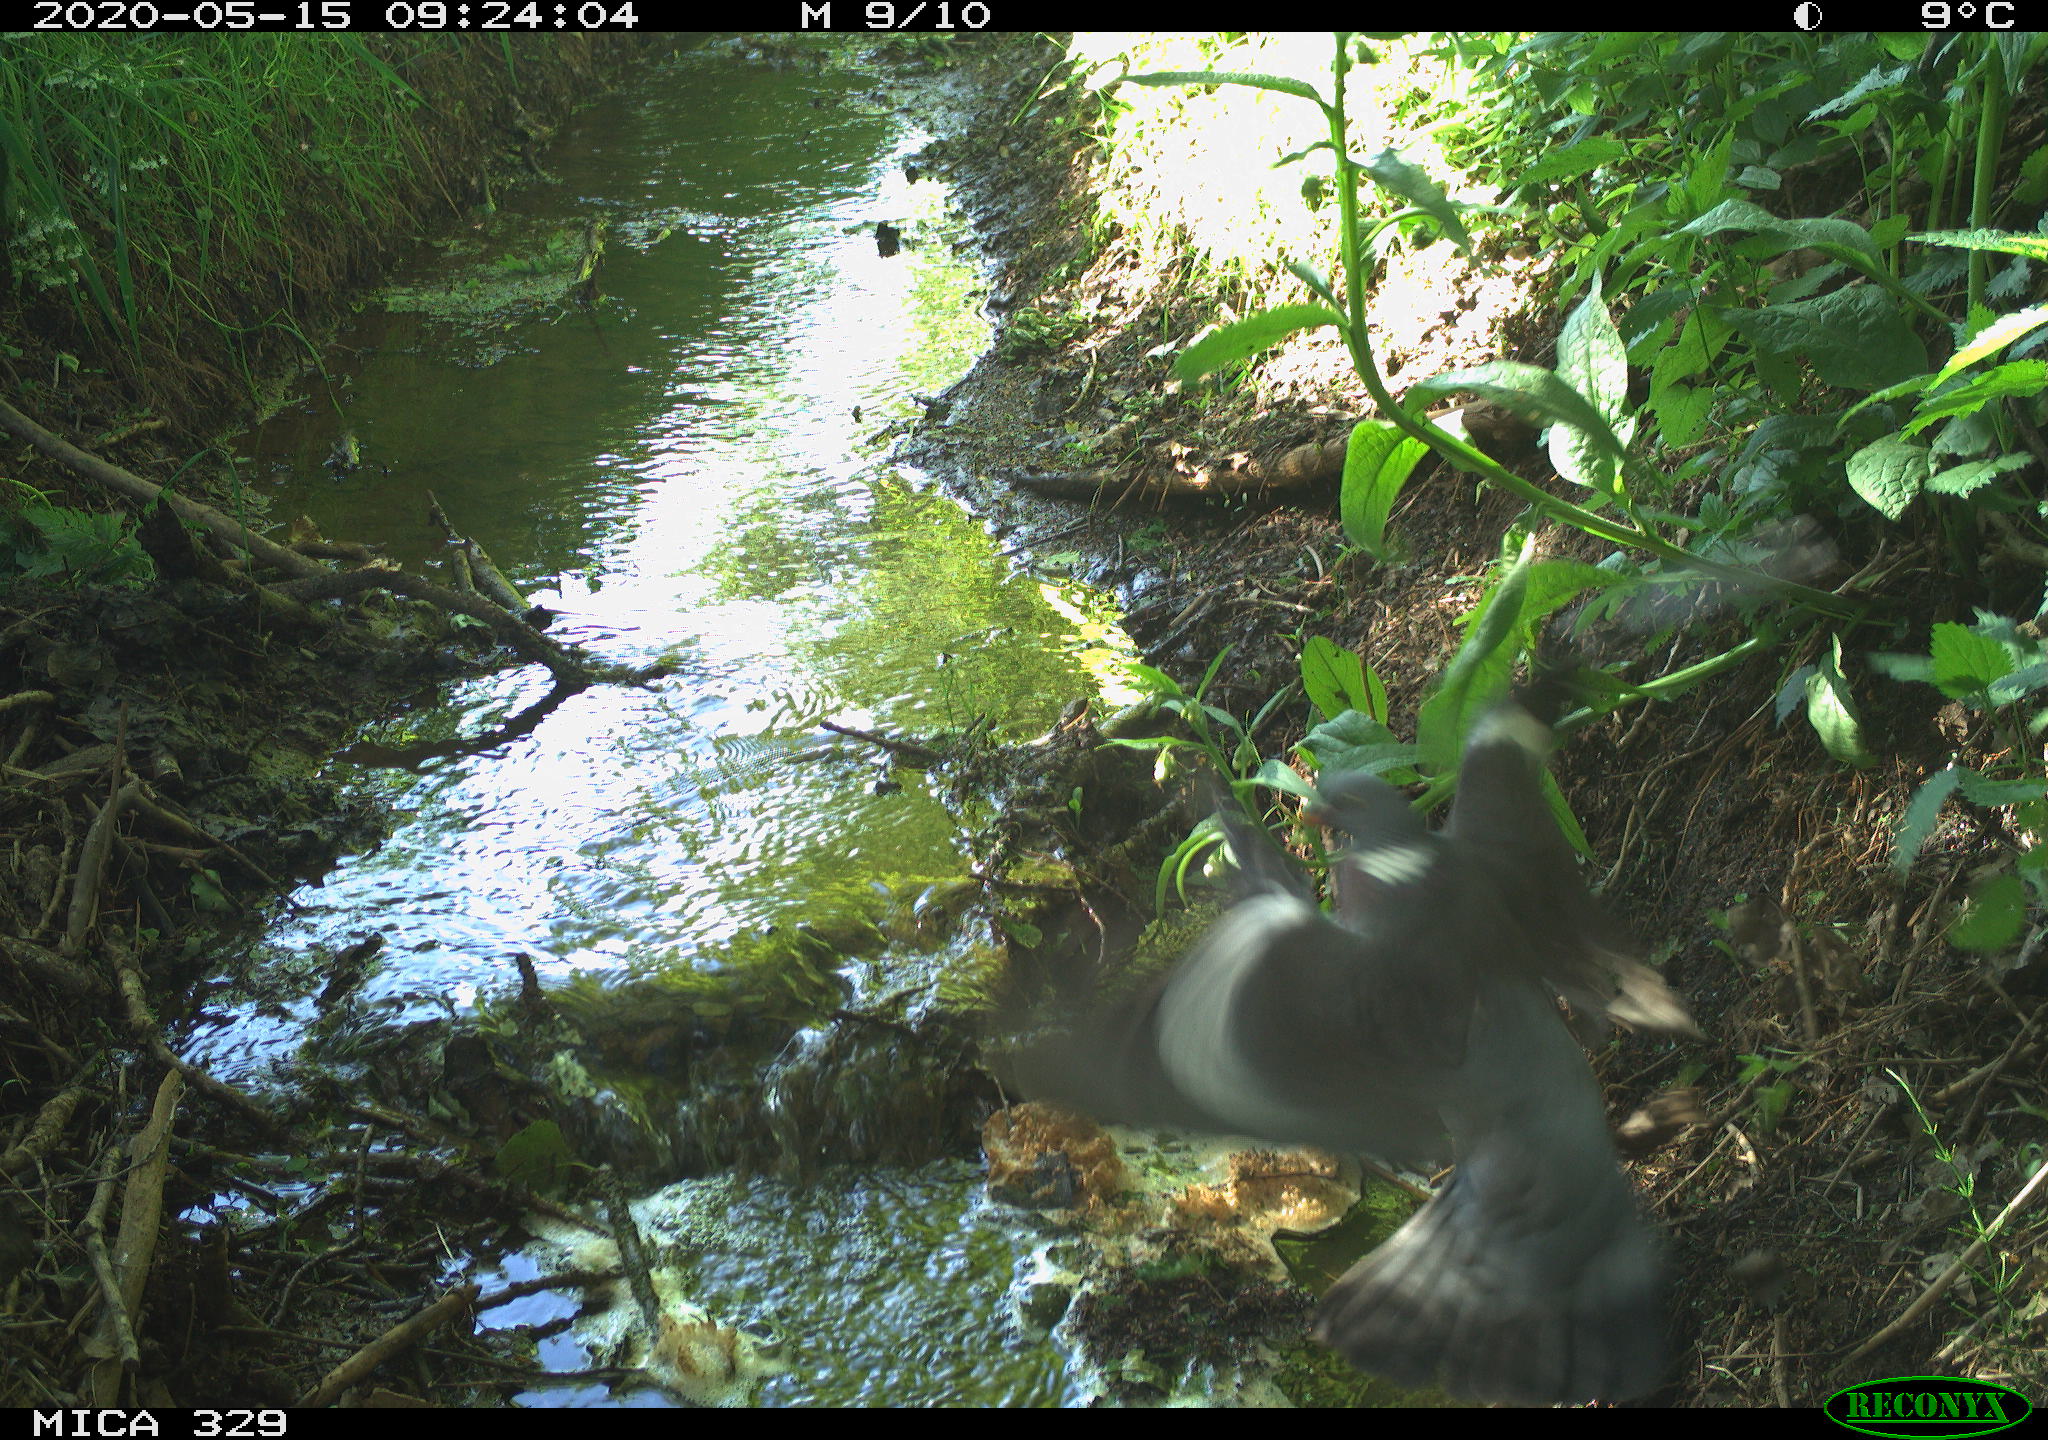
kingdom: Animalia
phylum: Chordata
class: Aves
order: Columbiformes
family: Columbidae
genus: Columba
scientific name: Columba palumbus
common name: Common wood pigeon
